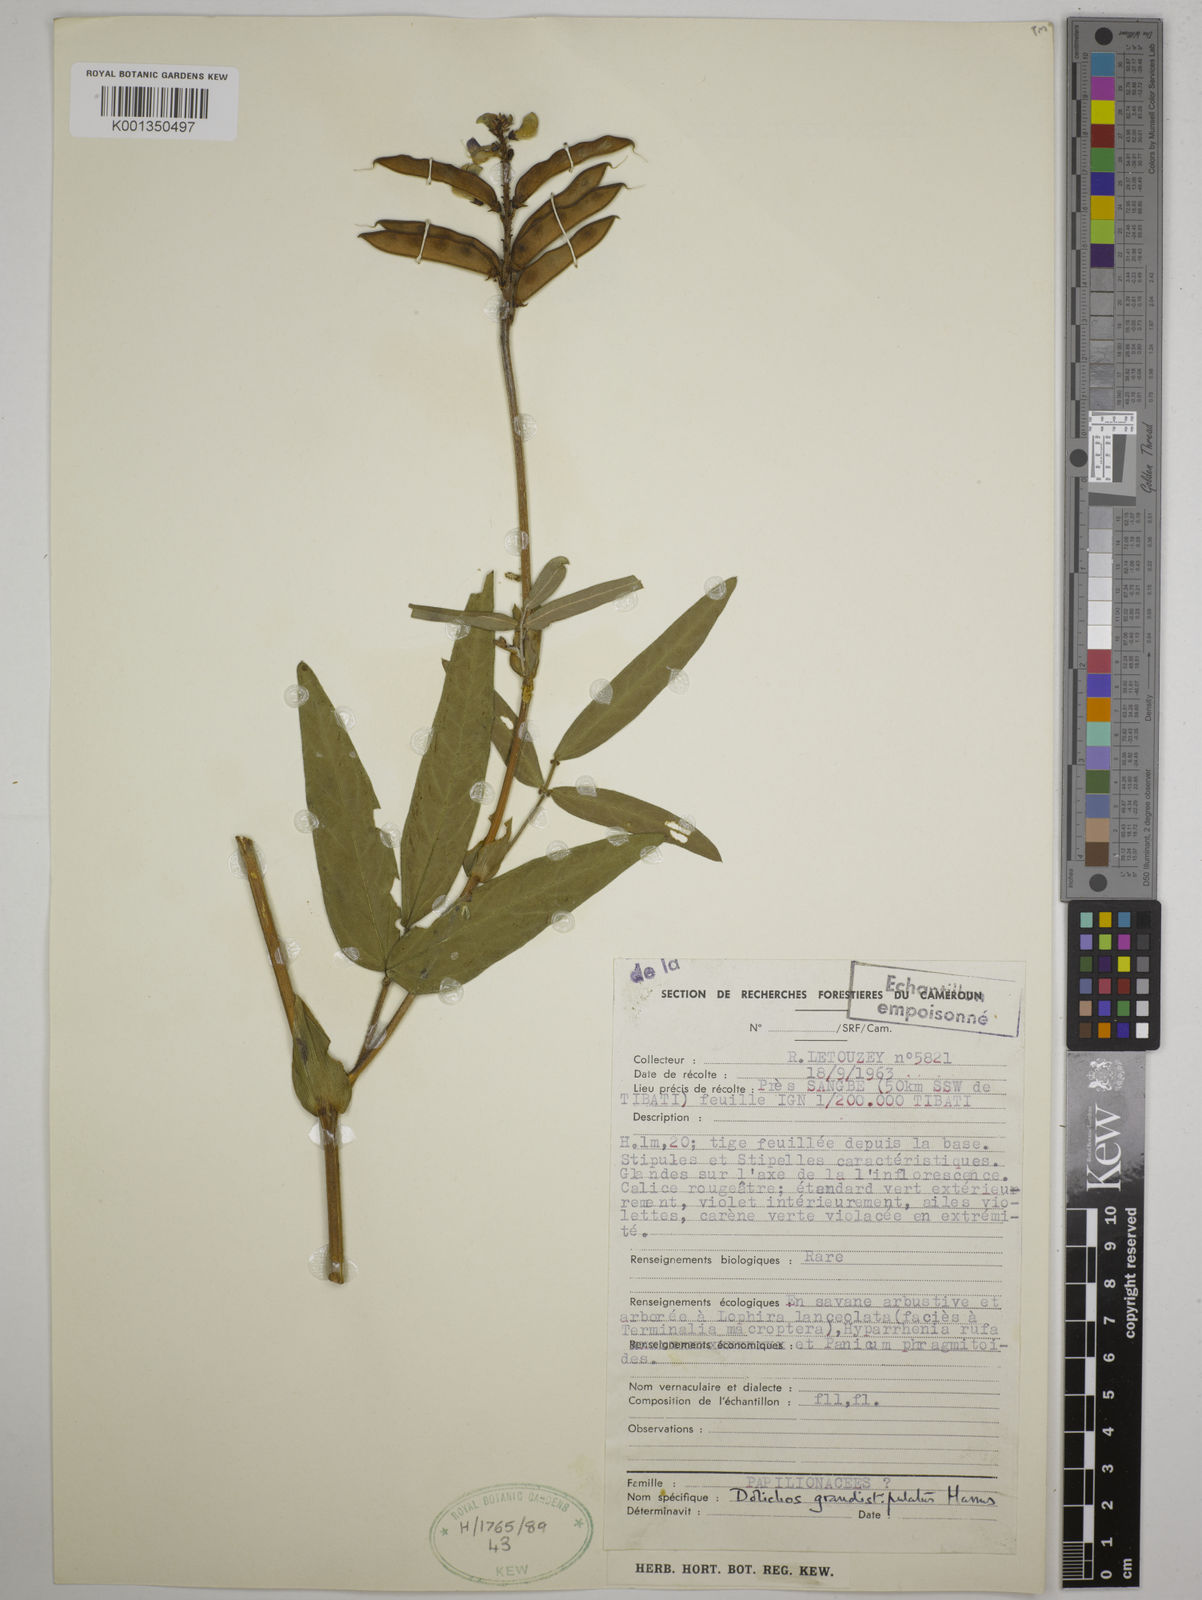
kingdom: Plantae
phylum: Tracheophyta
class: Magnoliopsida
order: Fabales
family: Fabaceae
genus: Dolichos
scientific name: Dolichos grandistipulatus
